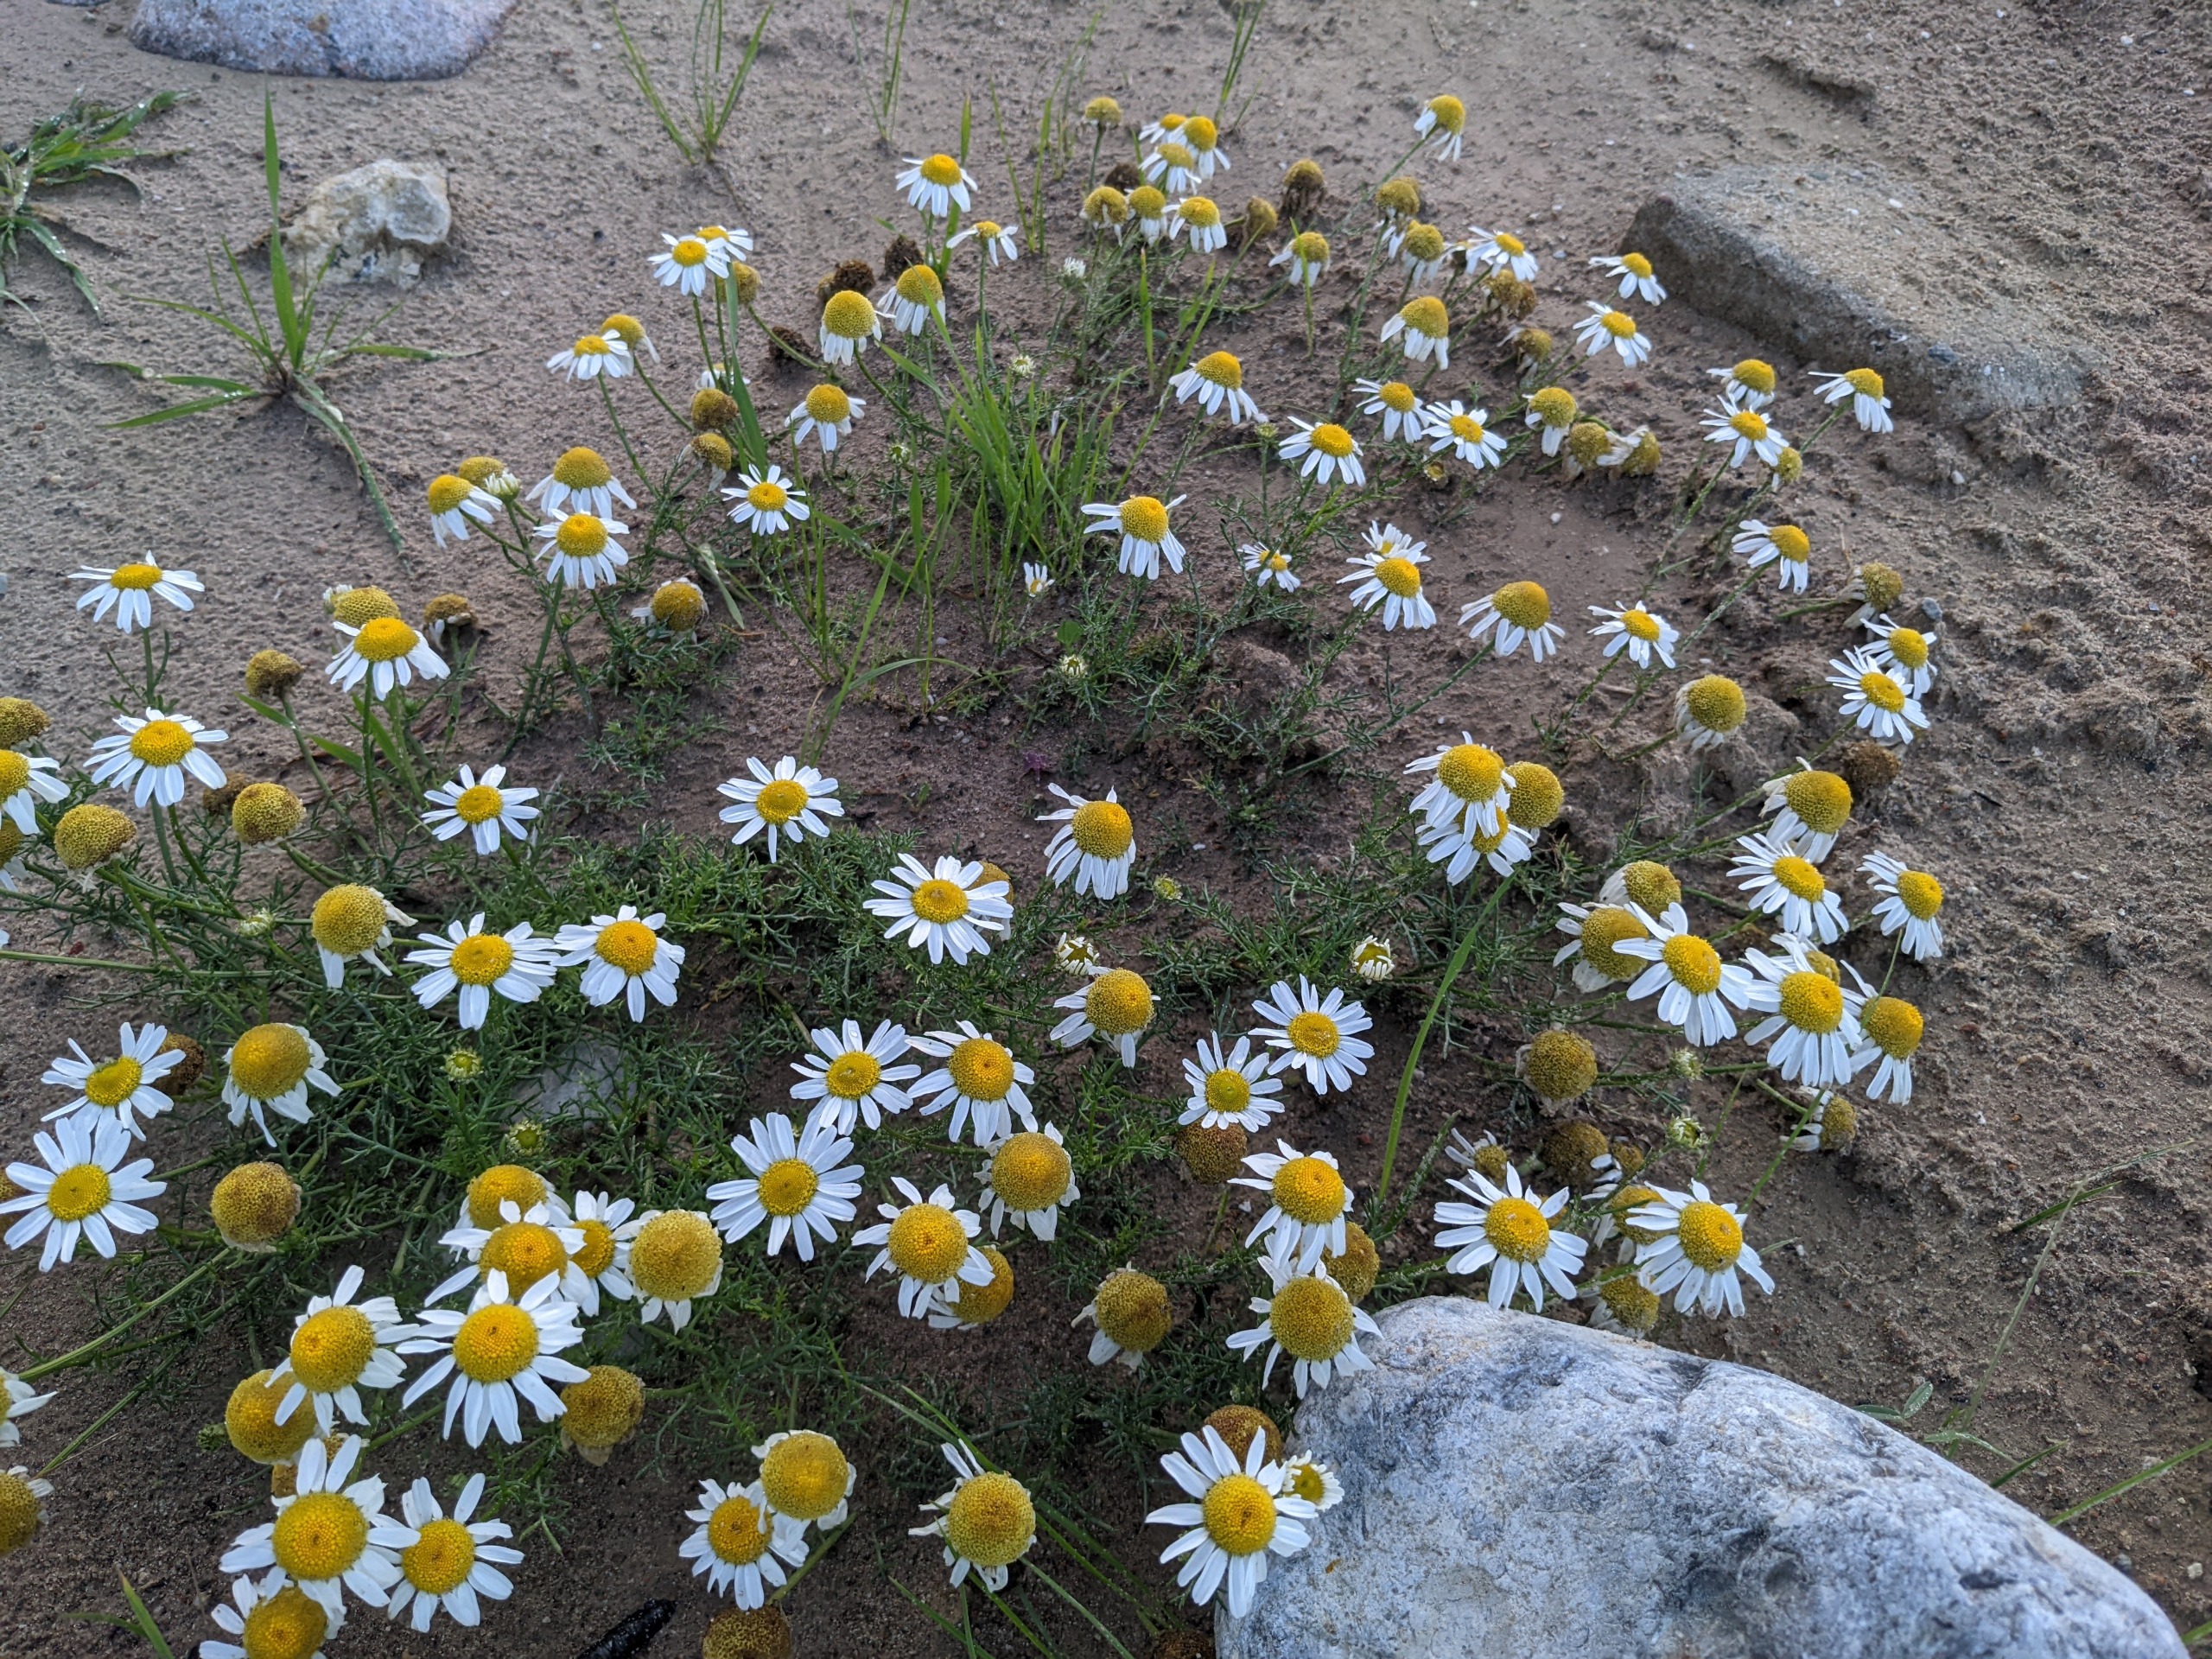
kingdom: Plantae
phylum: Tracheophyta
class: Magnoliopsida
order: Asterales
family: Asteraceae
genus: Tripleurospermum
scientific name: Tripleurospermum maritimum
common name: Strand-kamille
